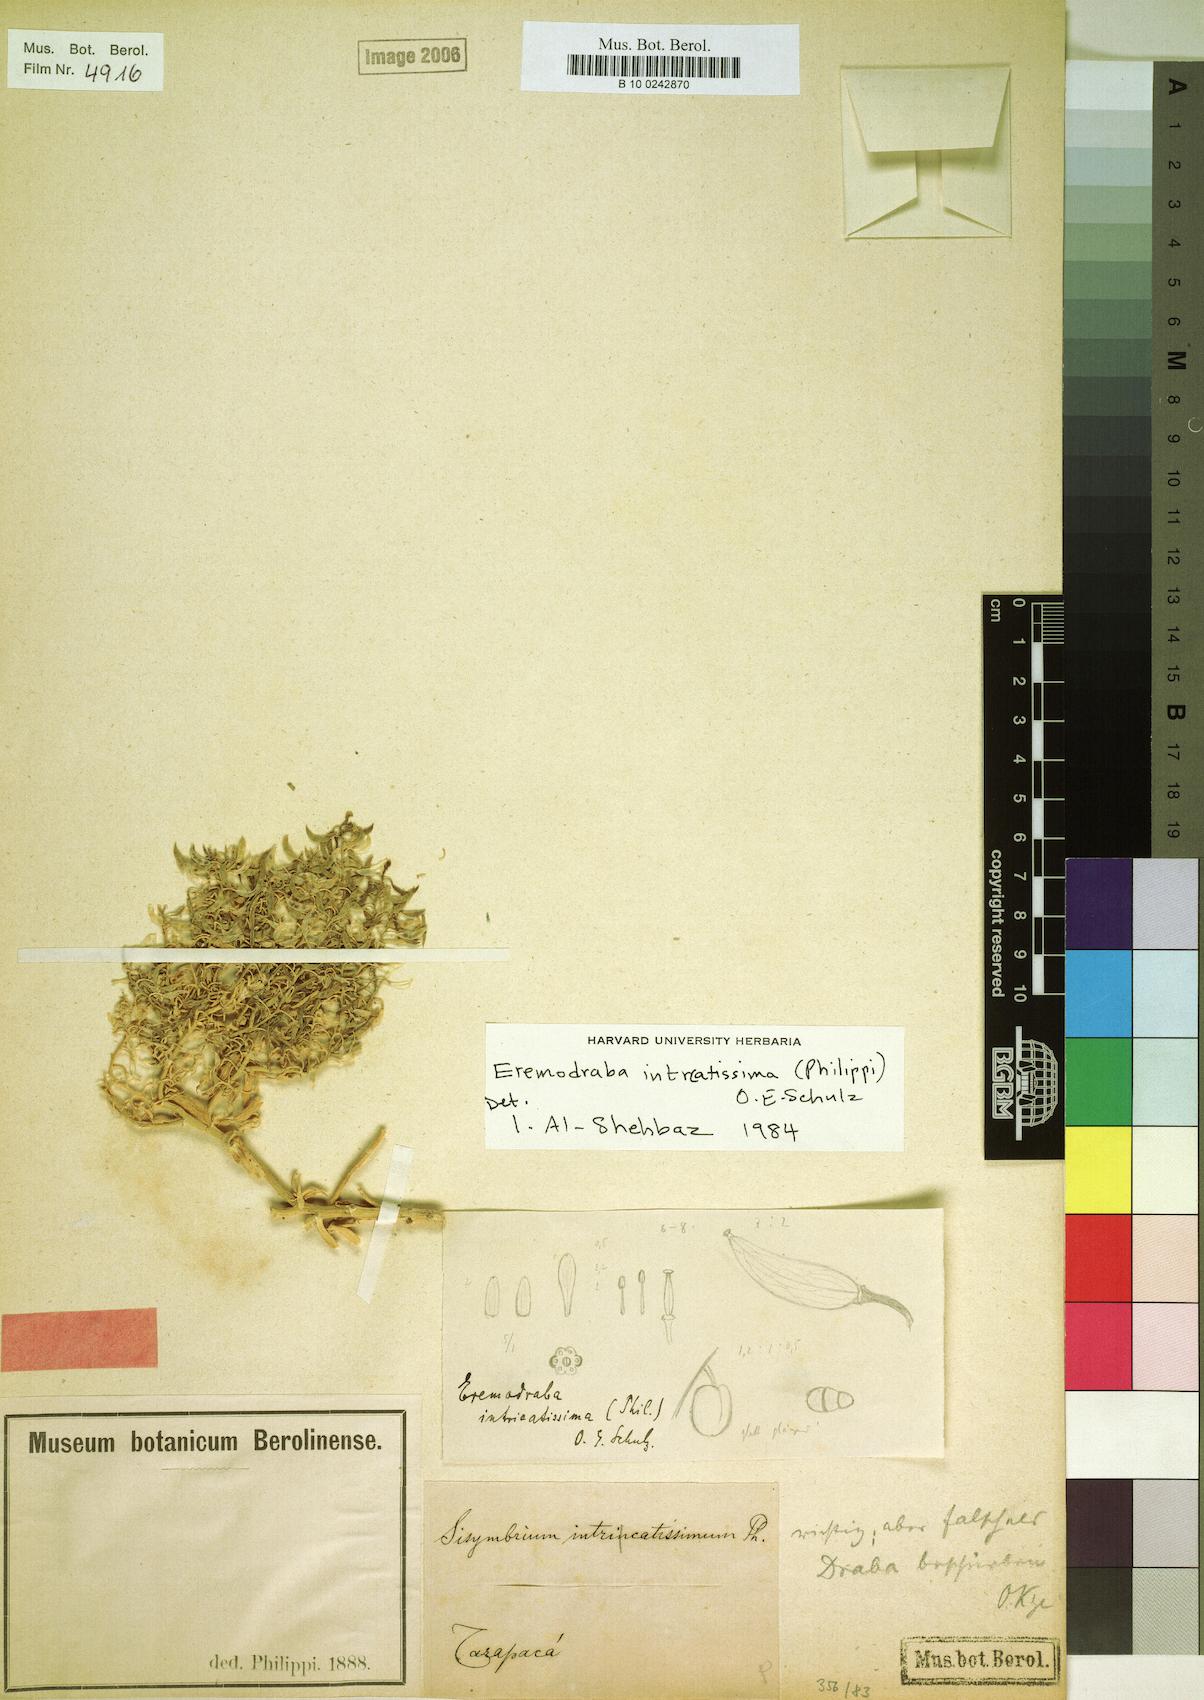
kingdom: Plantae
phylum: Tracheophyta
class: Magnoliopsida
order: Brassicales
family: Brassicaceae
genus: Neuontobotrys
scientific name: Neuontobotrys intricatissima
